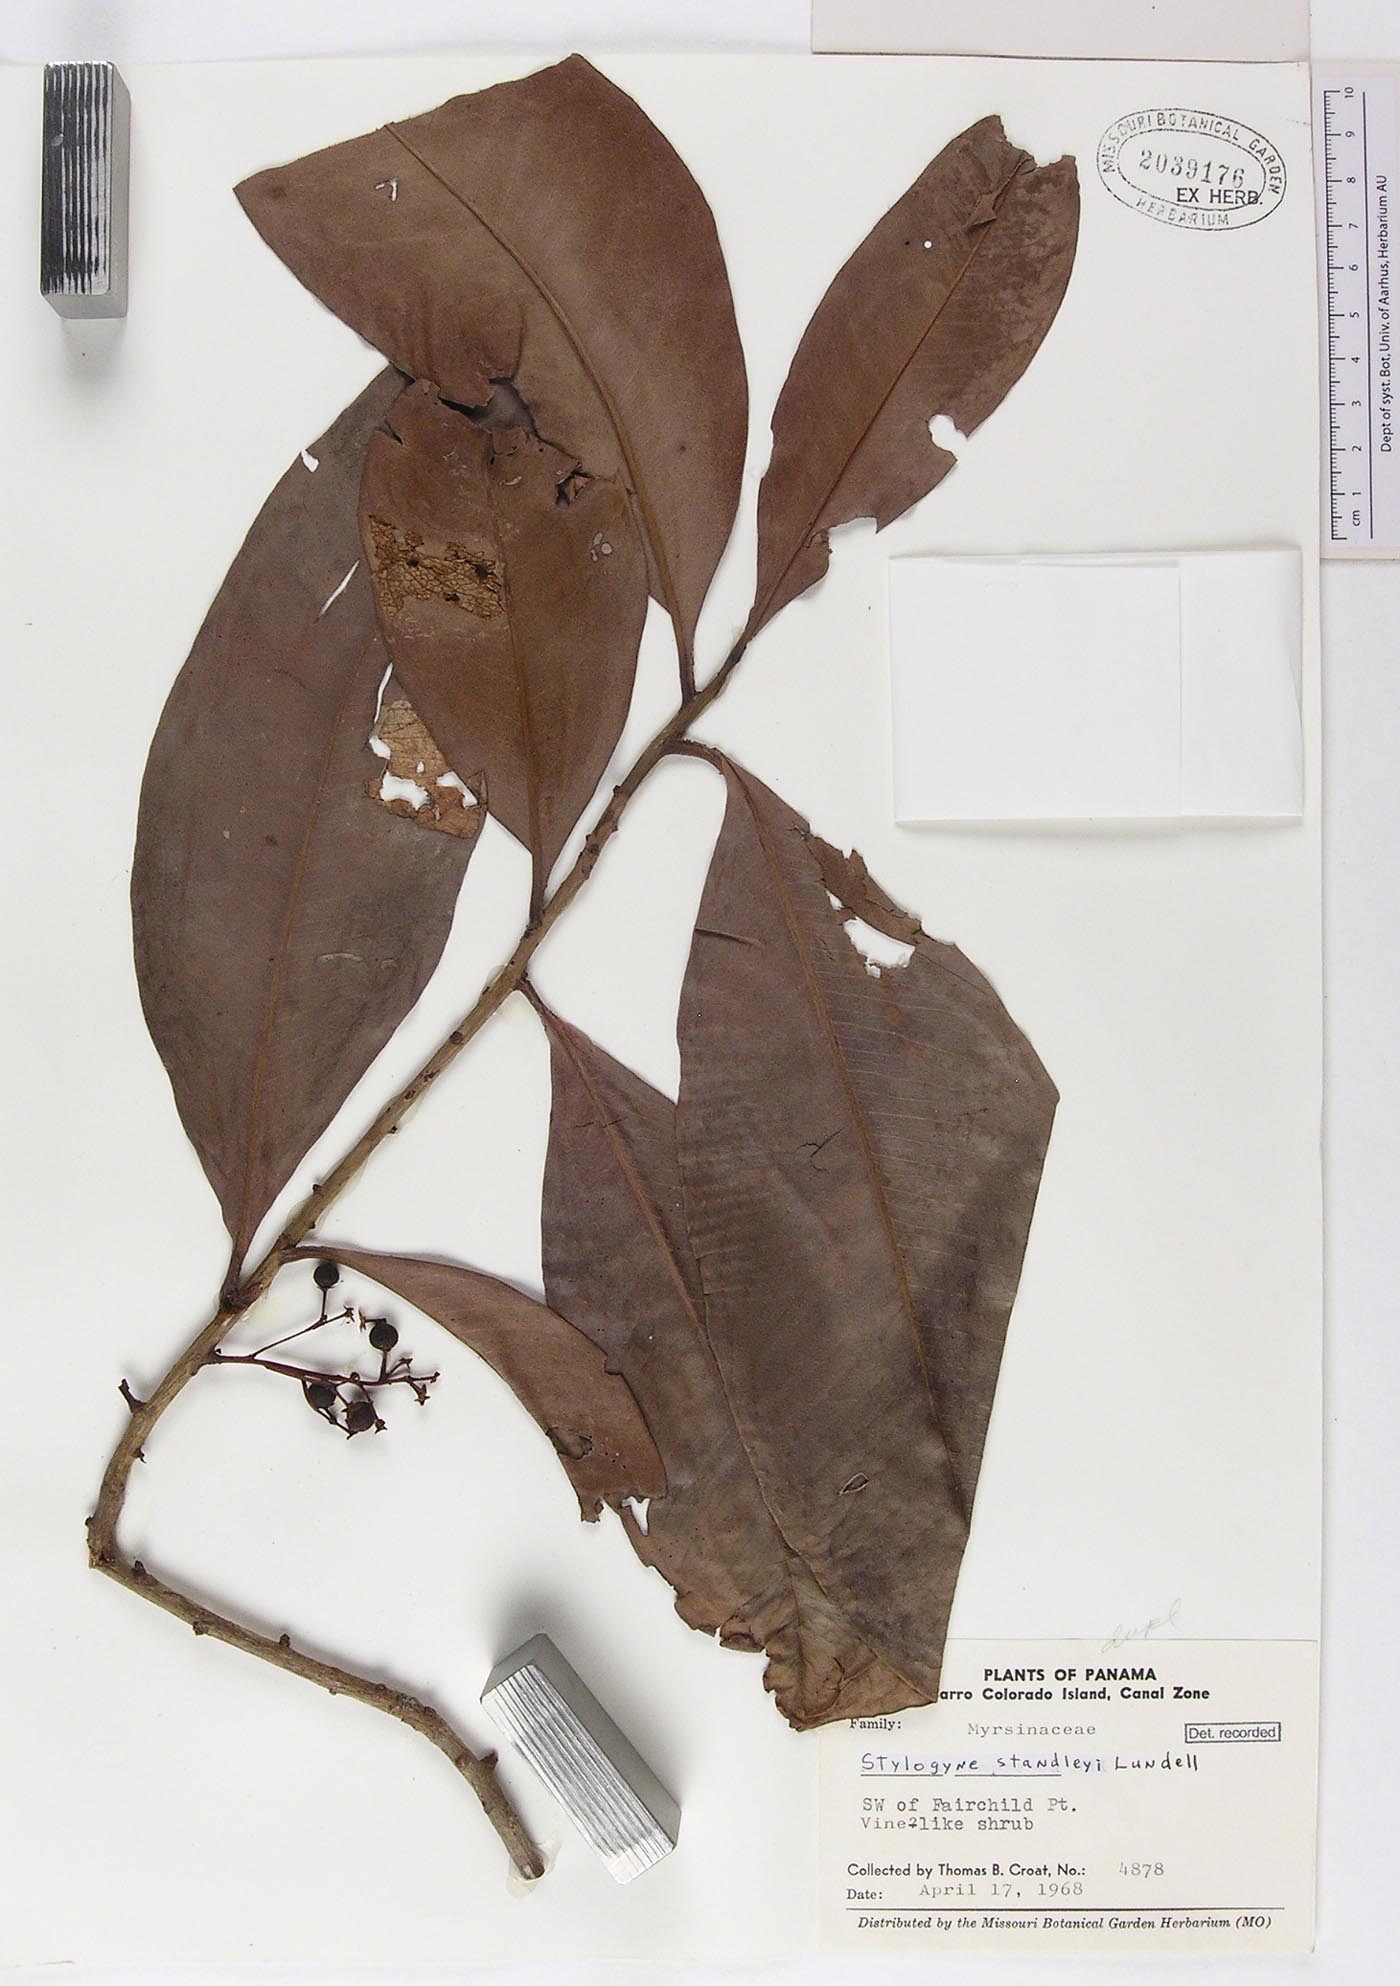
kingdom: Plantae
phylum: Tracheophyta
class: Magnoliopsida
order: Ericales
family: Primulaceae
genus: Stylogyne
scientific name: Stylogyne turbacensis
